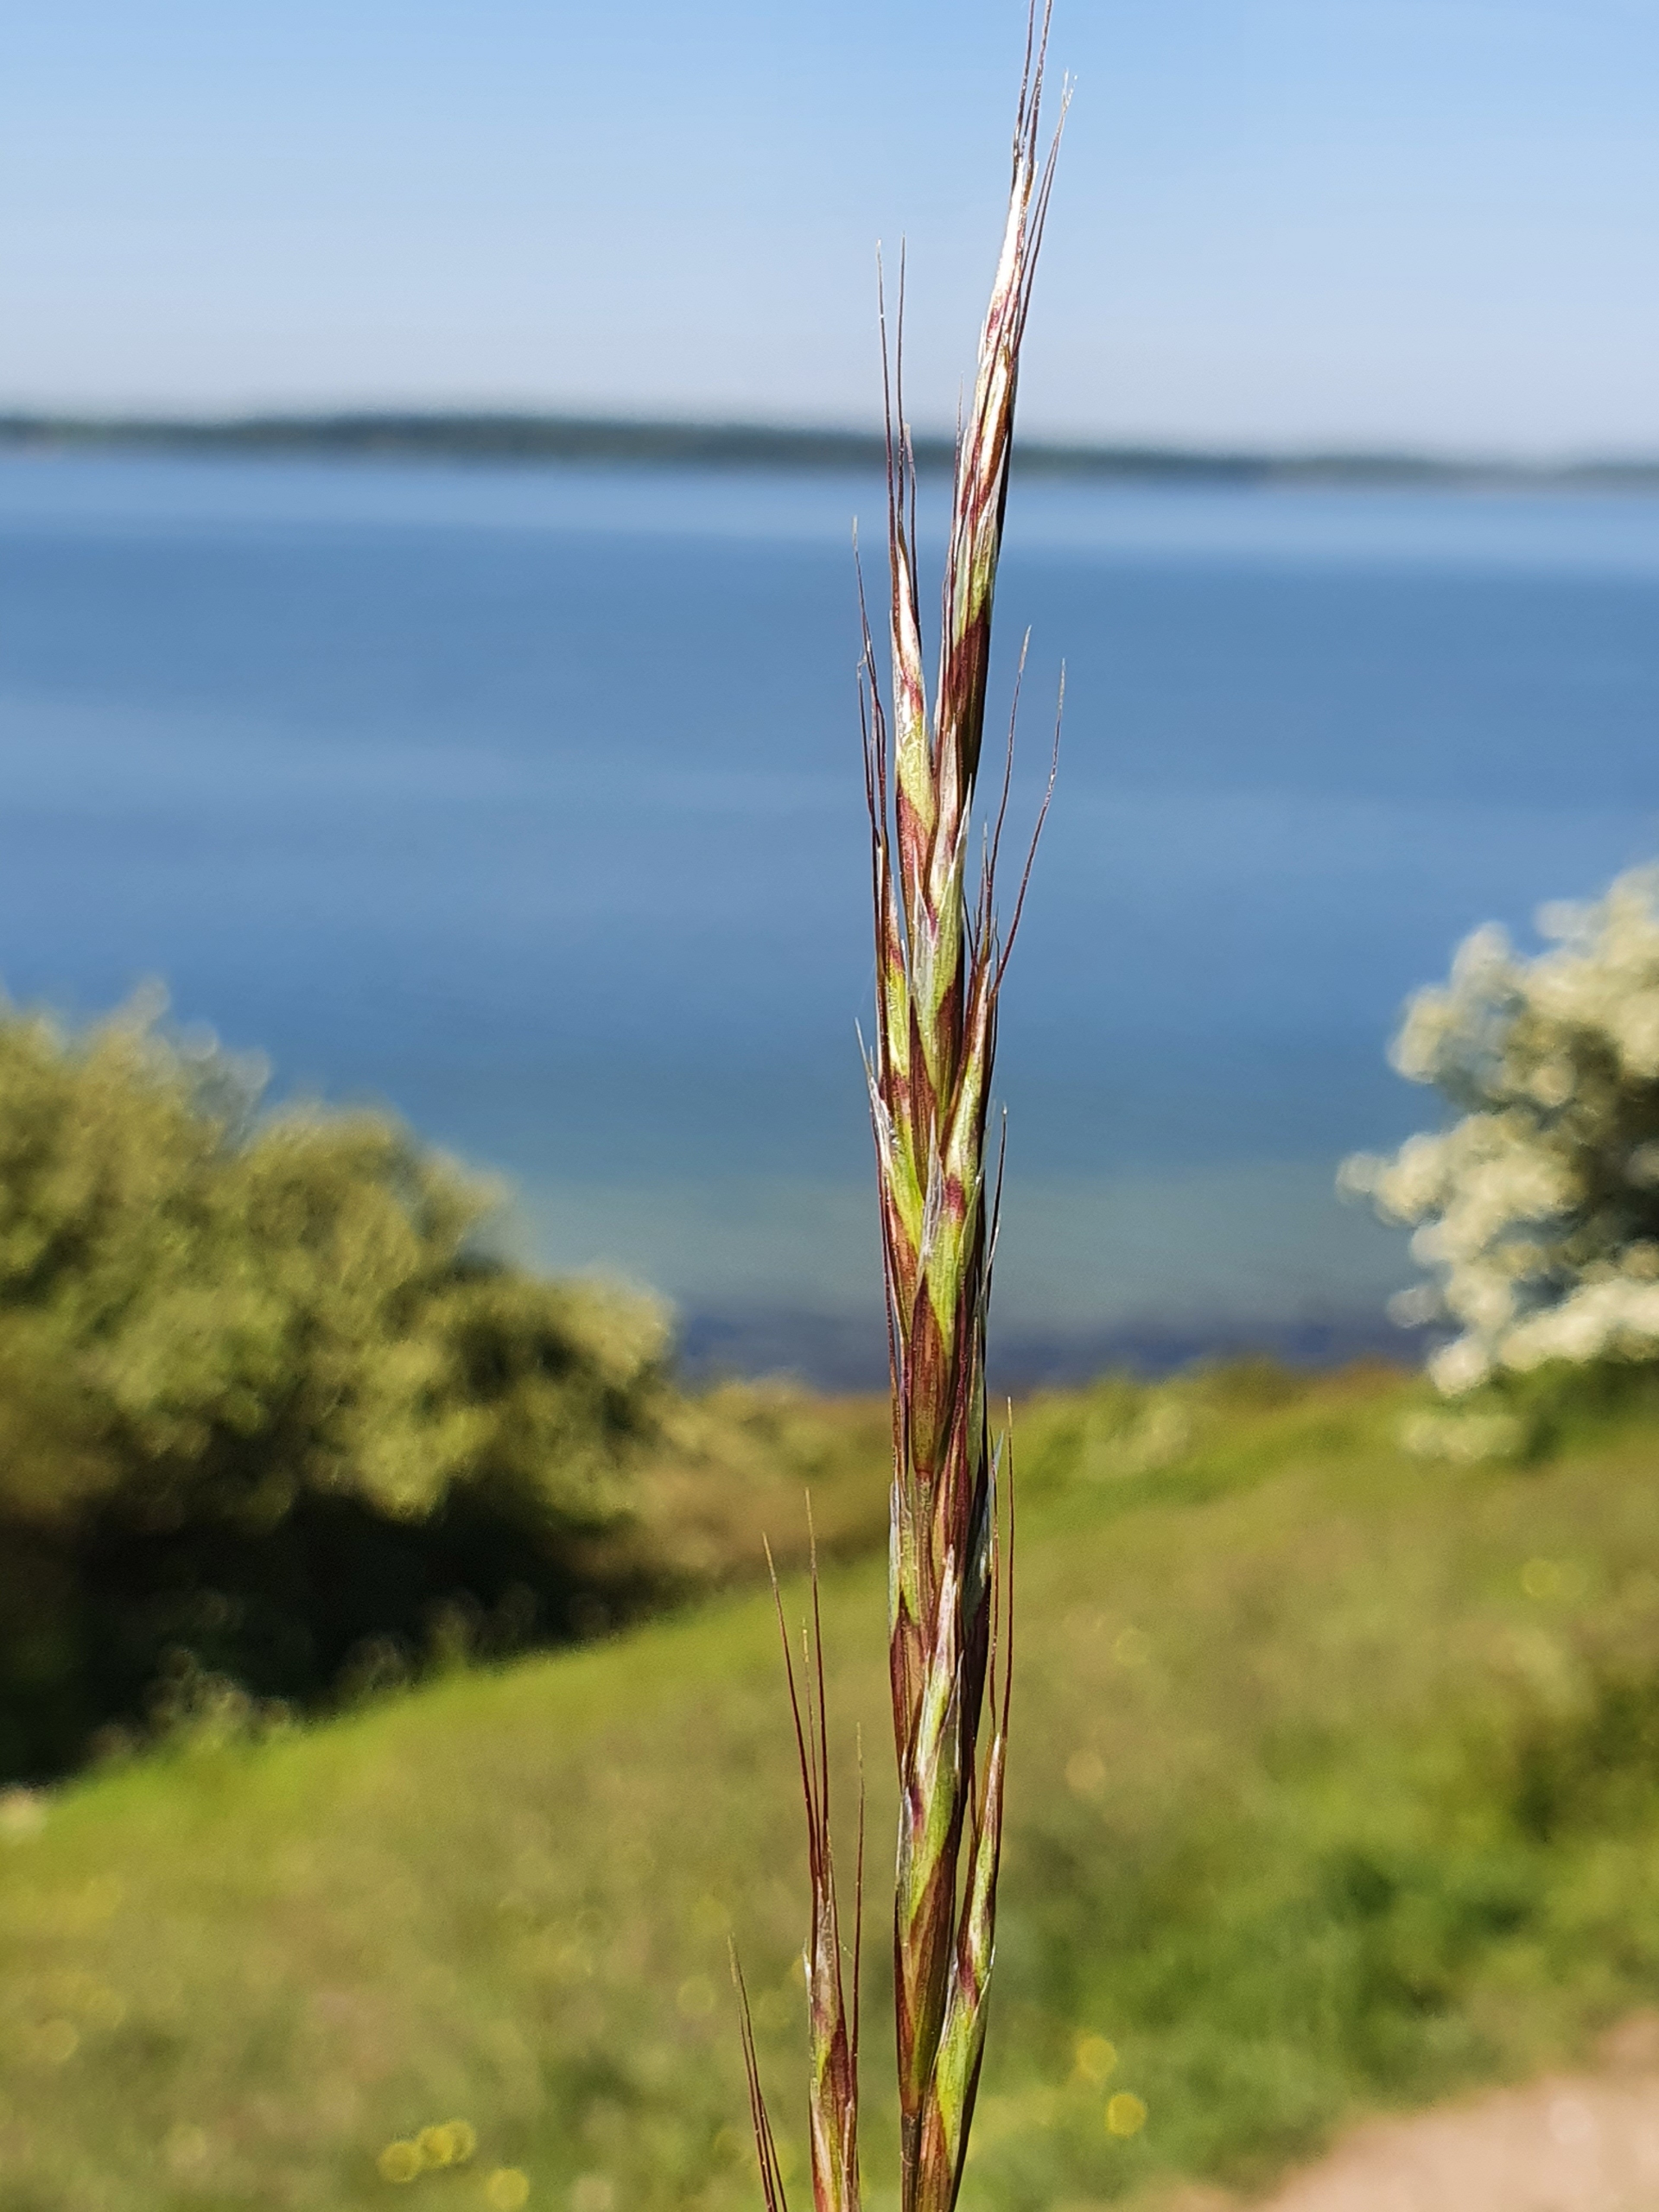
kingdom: Plantae
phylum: Tracheophyta
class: Liliopsida
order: Poales
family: Poaceae
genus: Helictochloa
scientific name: Helictochloa pratensis
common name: Eng-havre
